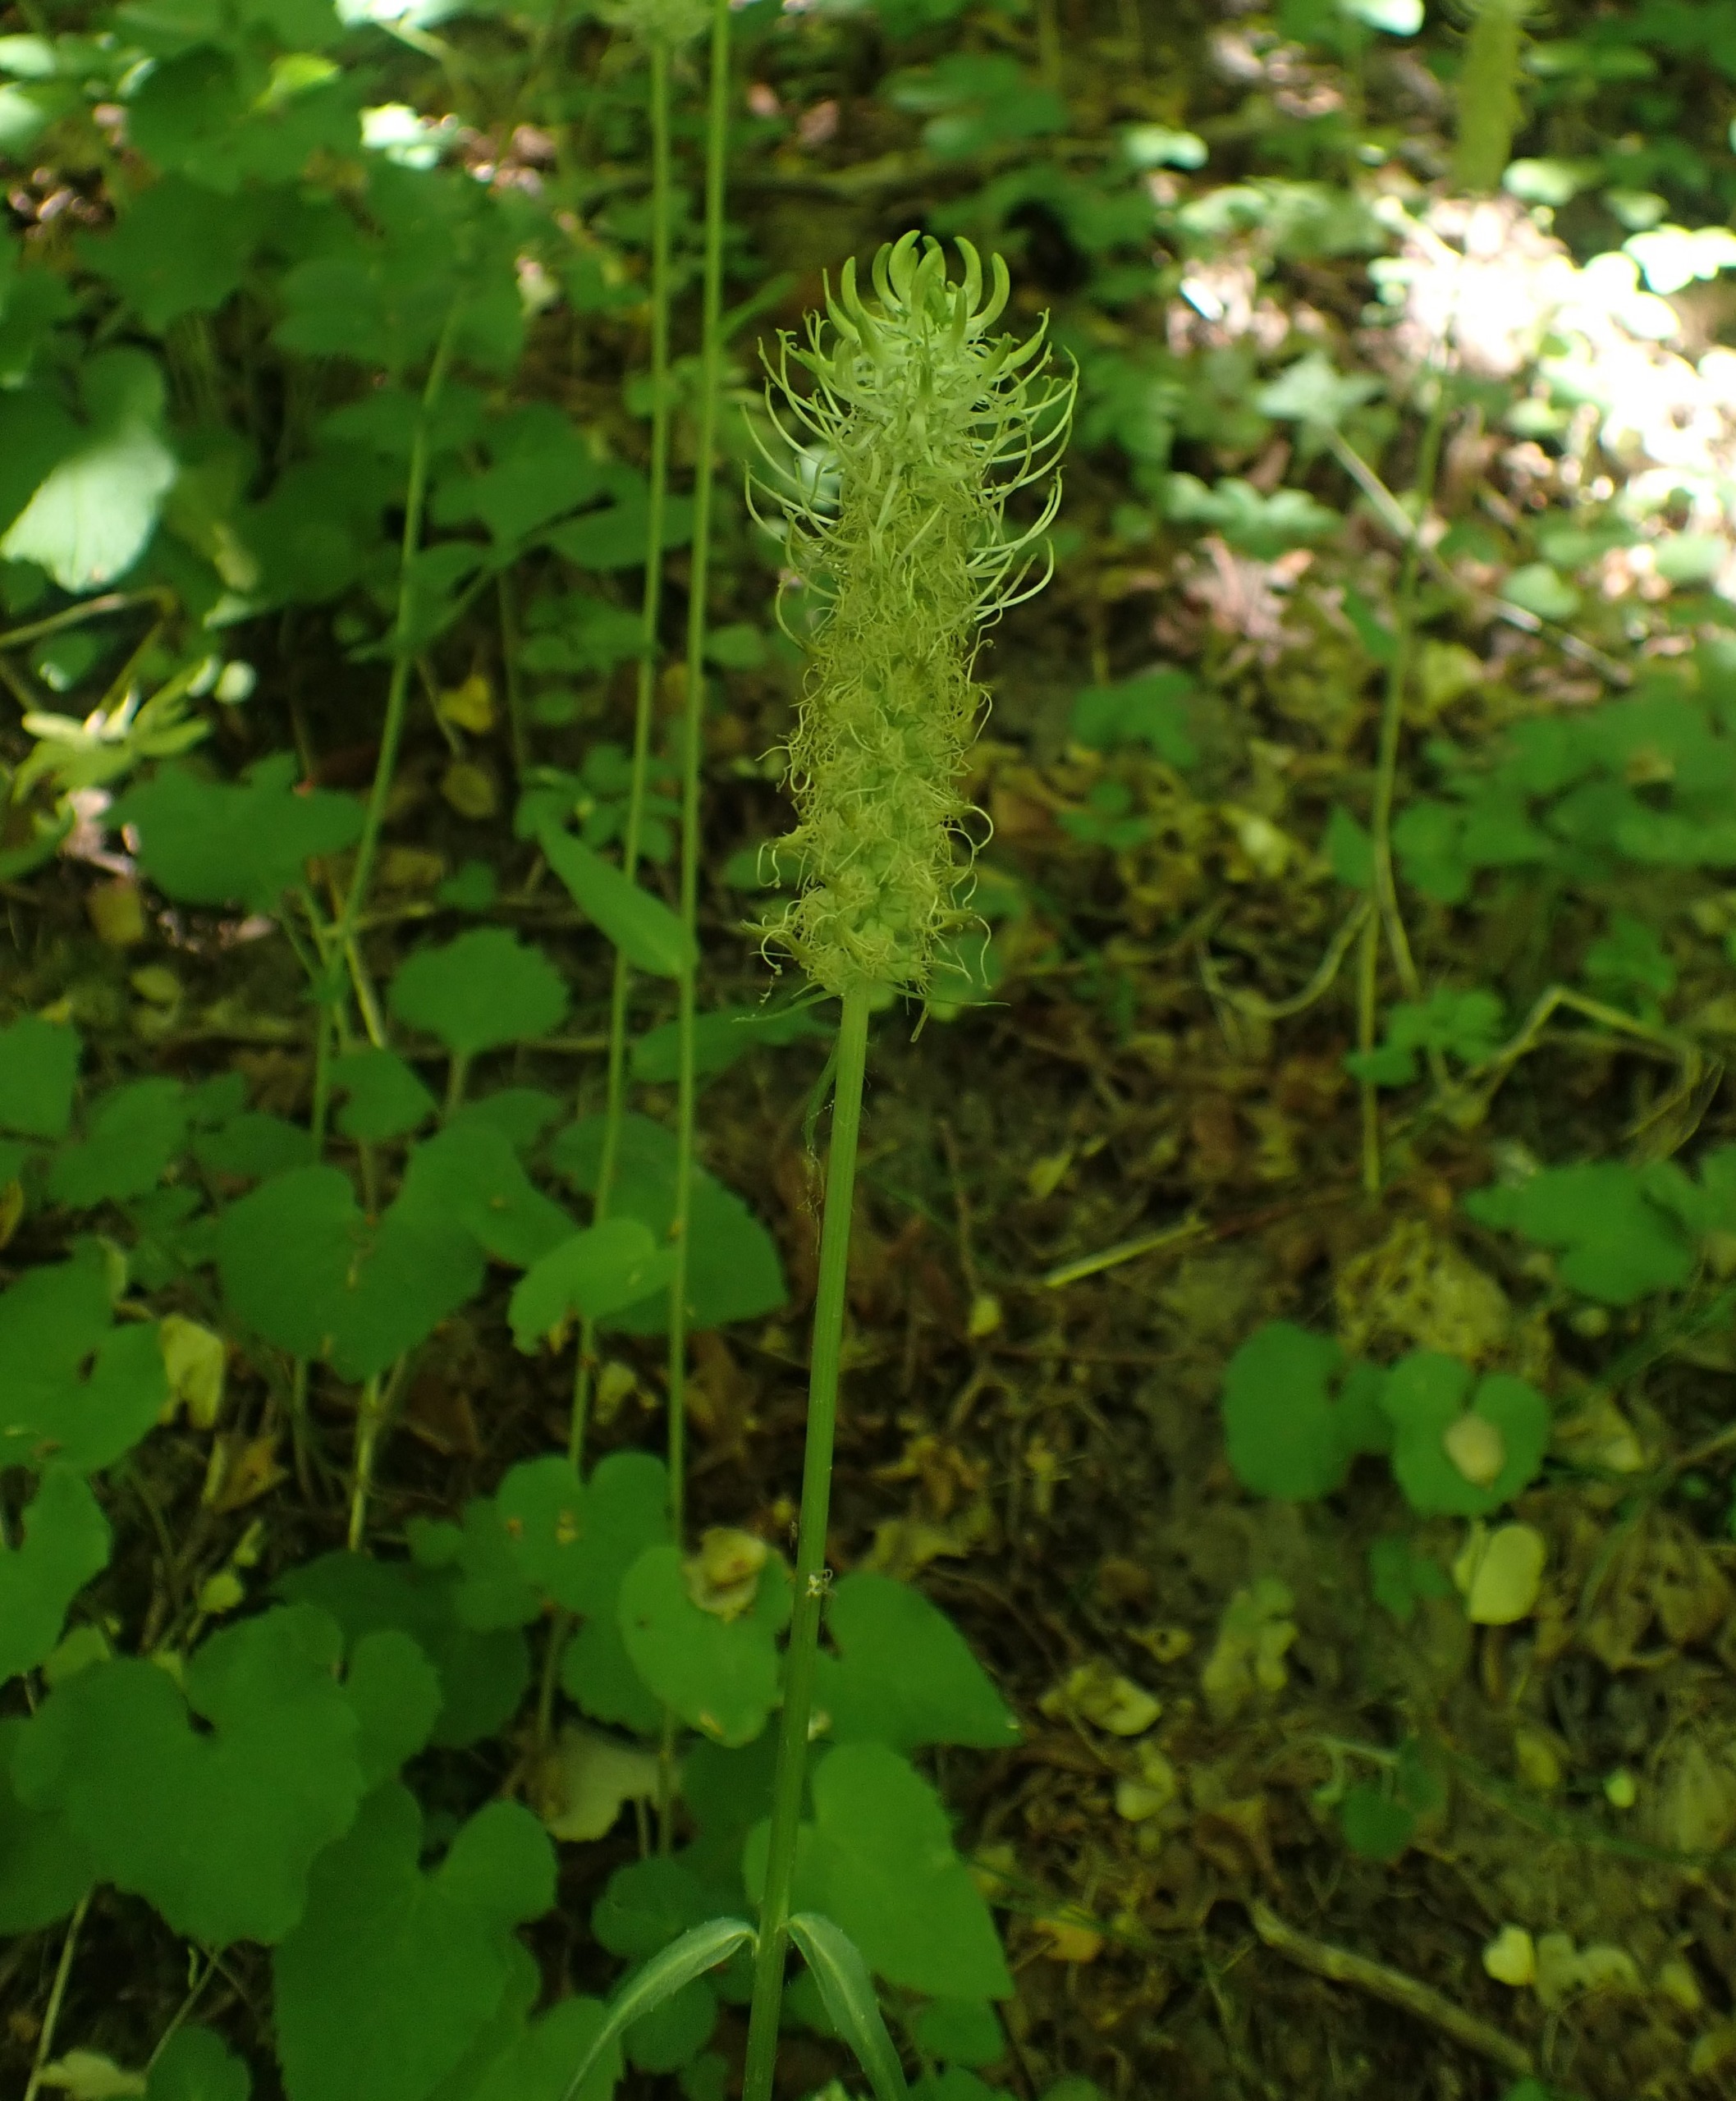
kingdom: Plantae
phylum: Tracheophyta
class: Magnoliopsida
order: Asterales
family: Campanulaceae
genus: Phyteuma
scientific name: Phyteuma spicatum
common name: Aks-rapunsel
